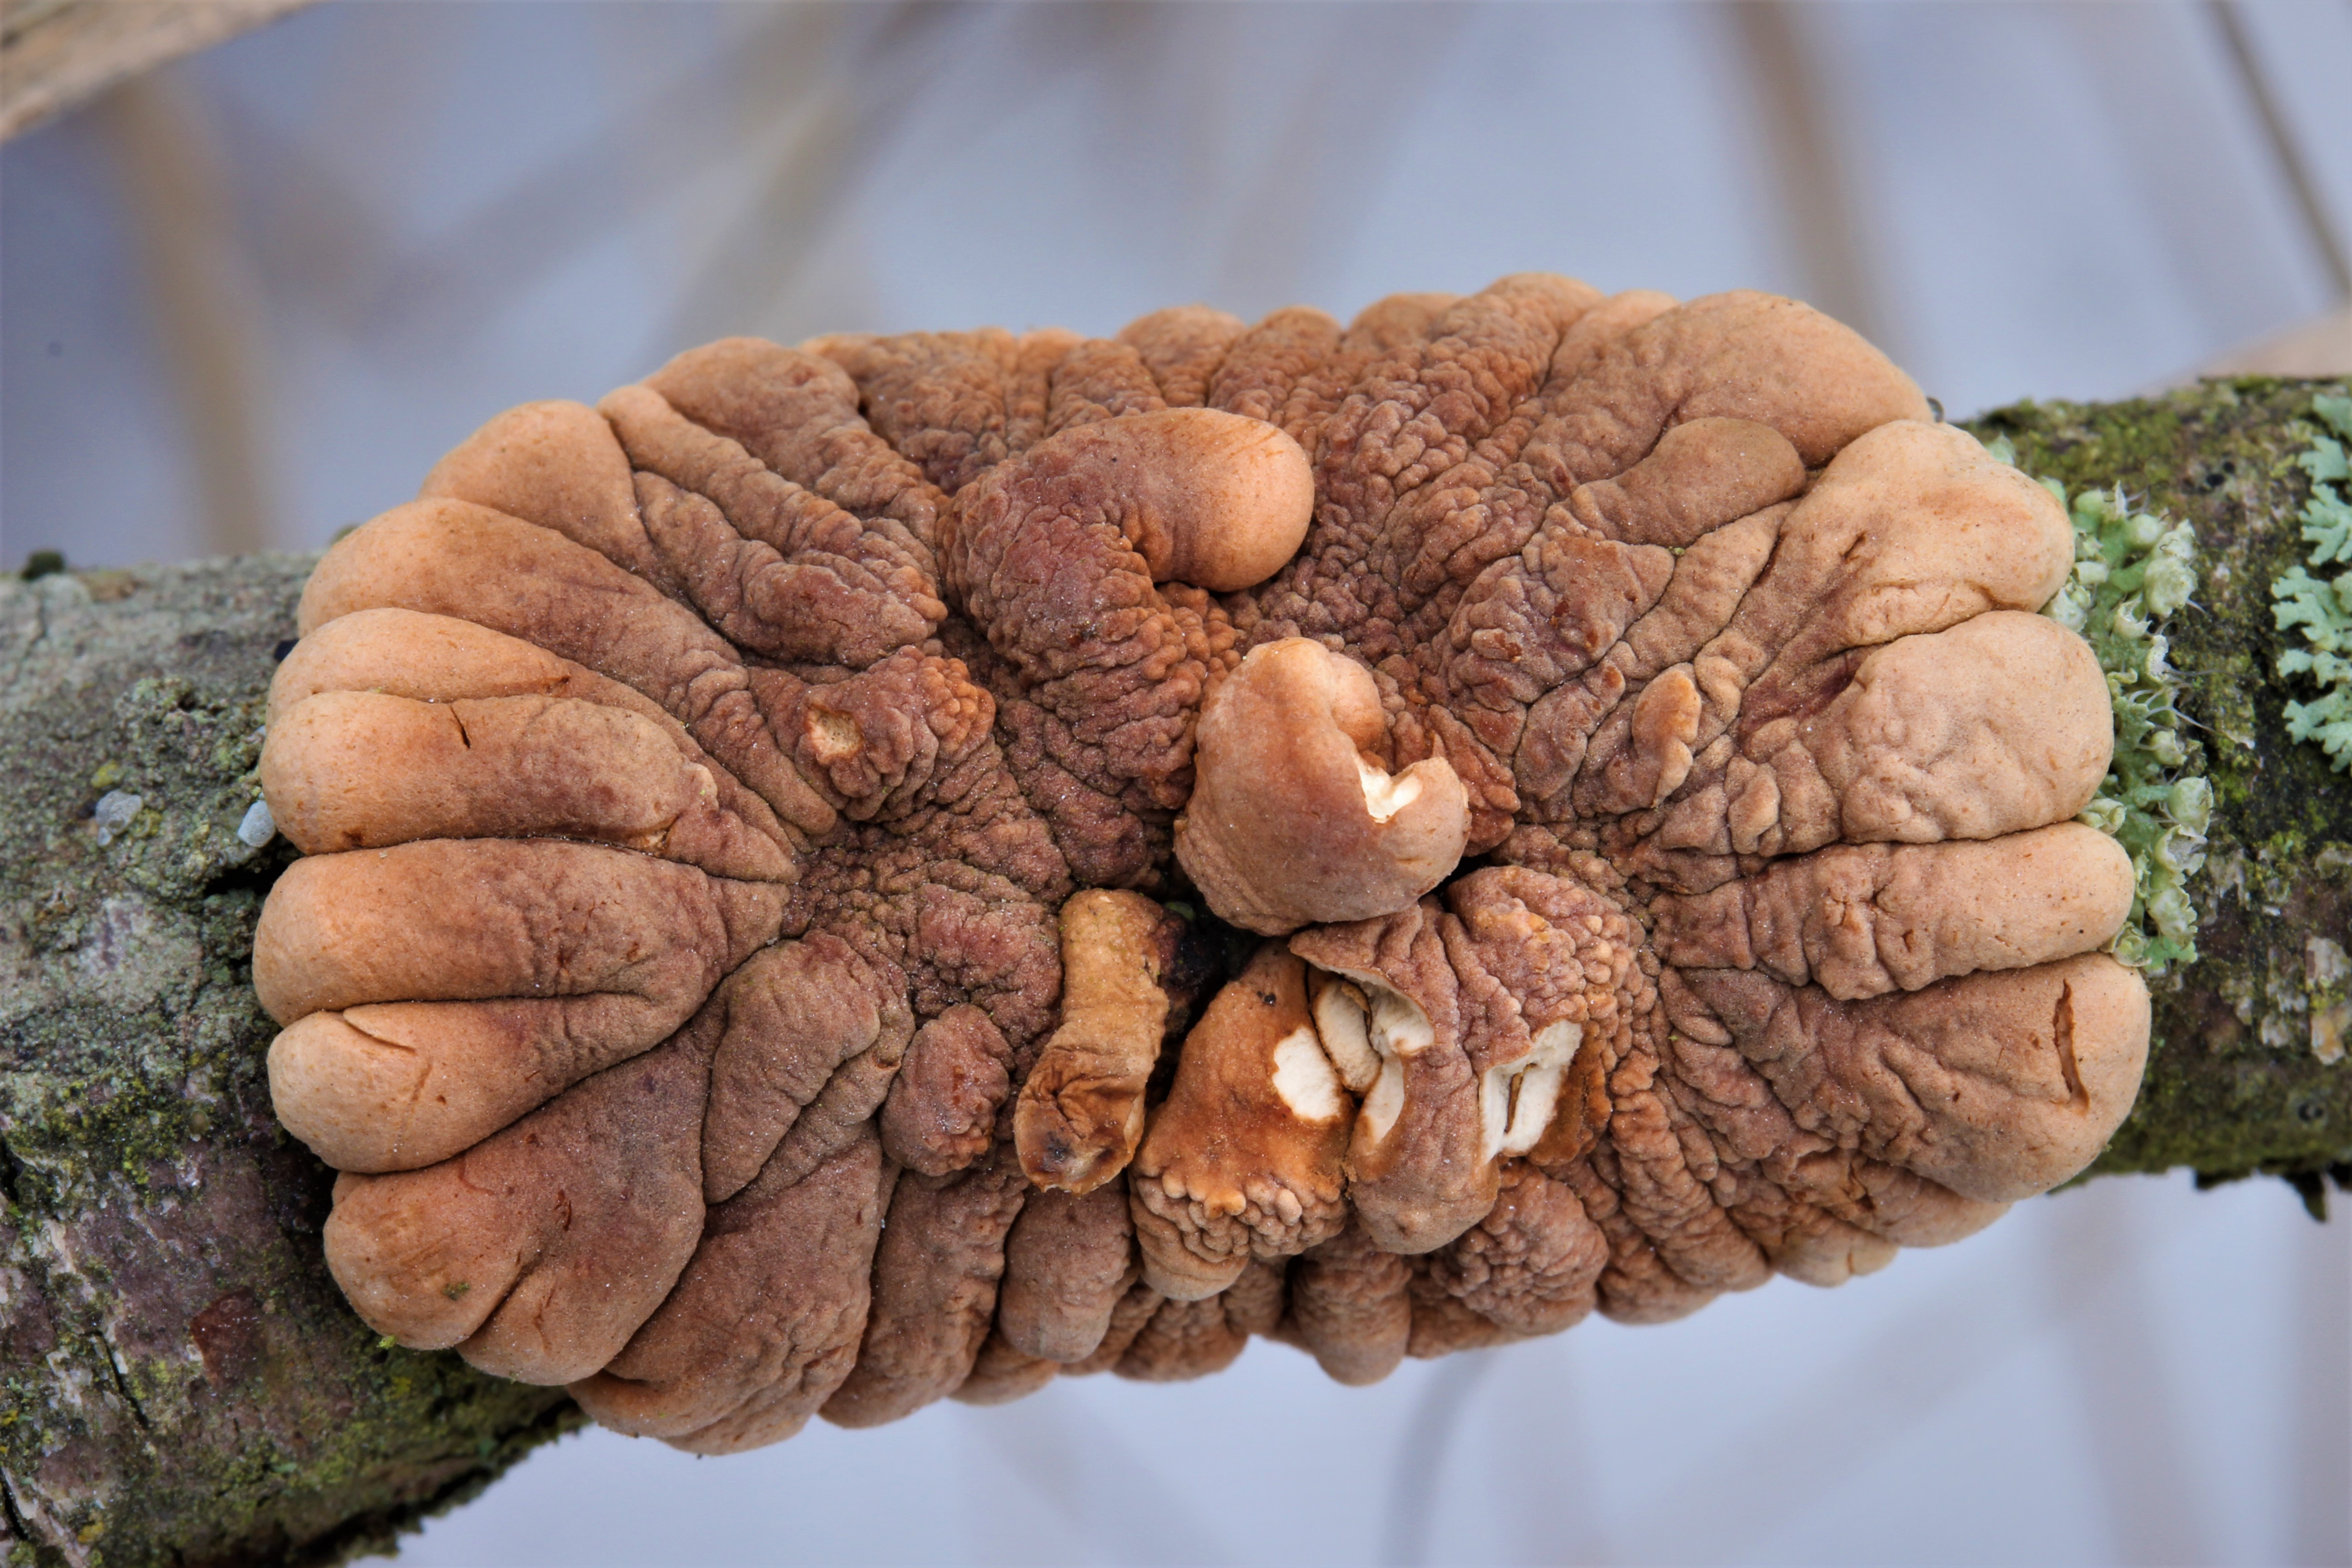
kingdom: Fungi
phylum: Ascomycota
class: Sordariomycetes
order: Hypocreales
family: Hypocreaceae
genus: Hypocreopsis
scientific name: Hypocreopsis lichenoides
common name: Willow gloves
